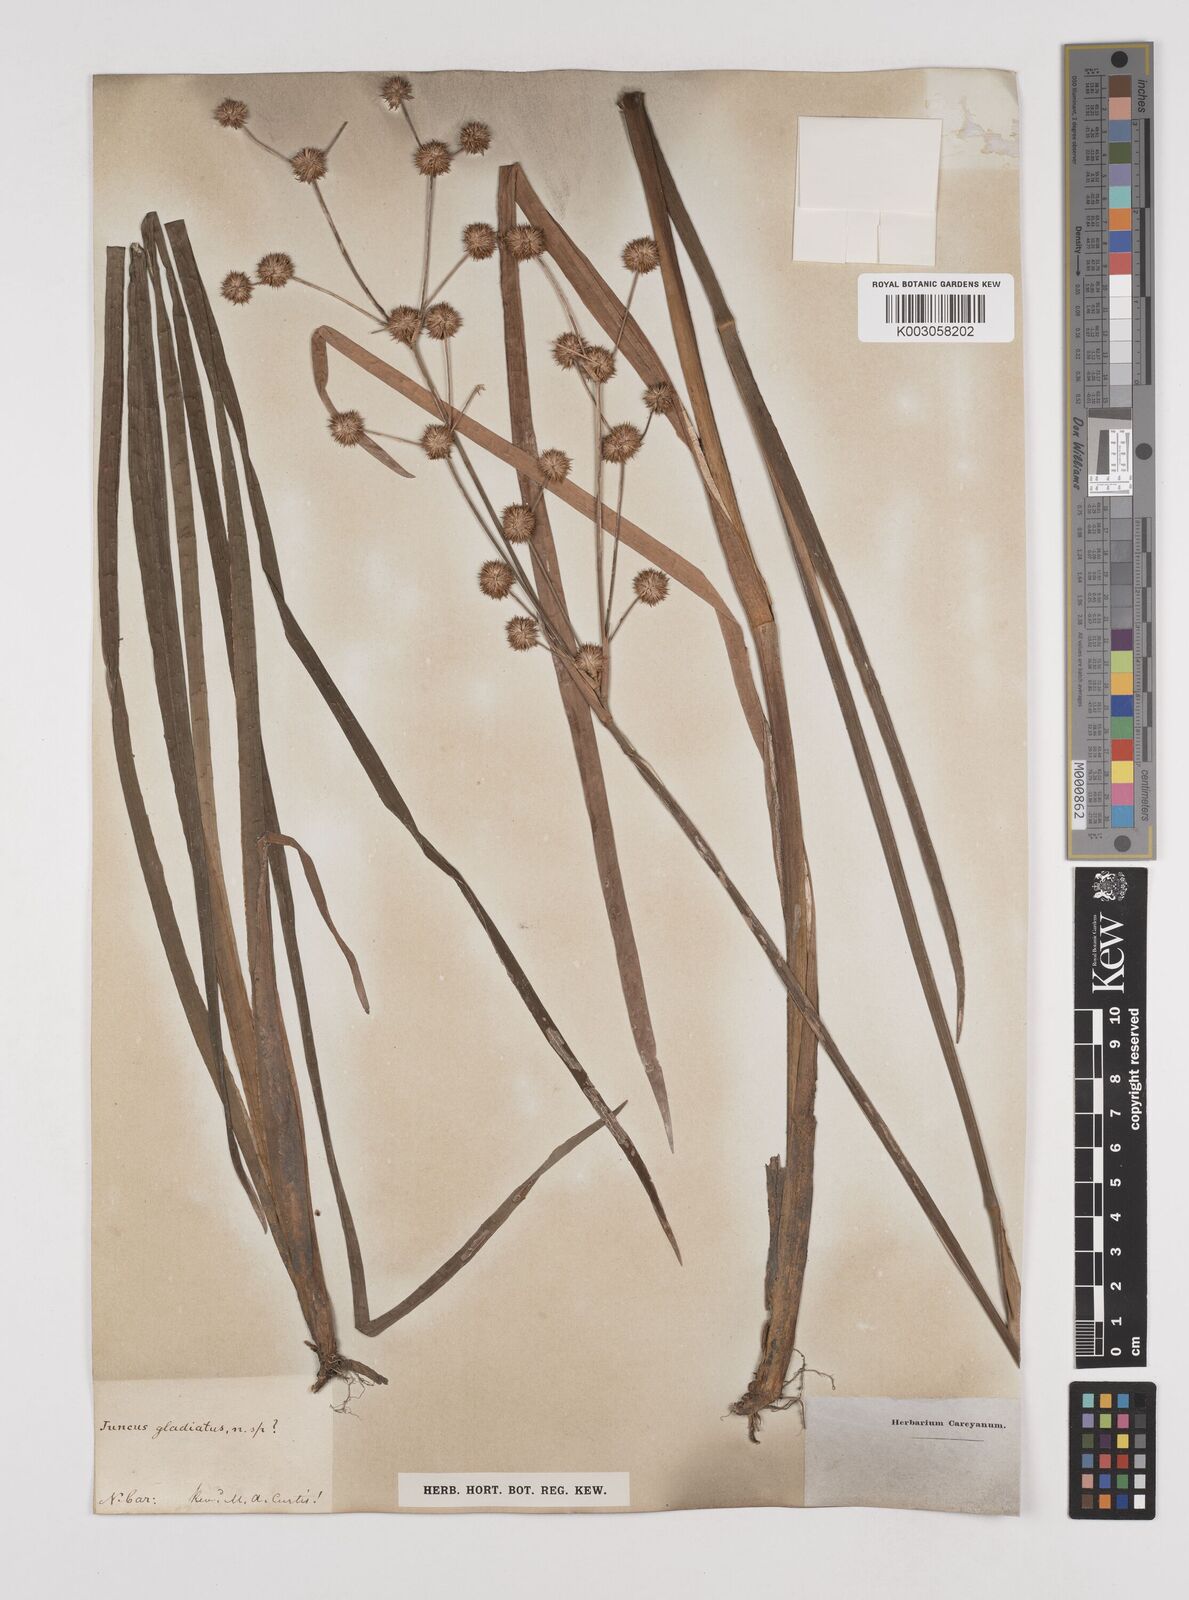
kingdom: Plantae
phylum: Tracheophyta
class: Liliopsida
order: Poales
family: Juncaceae
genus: Juncus
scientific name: Juncus
